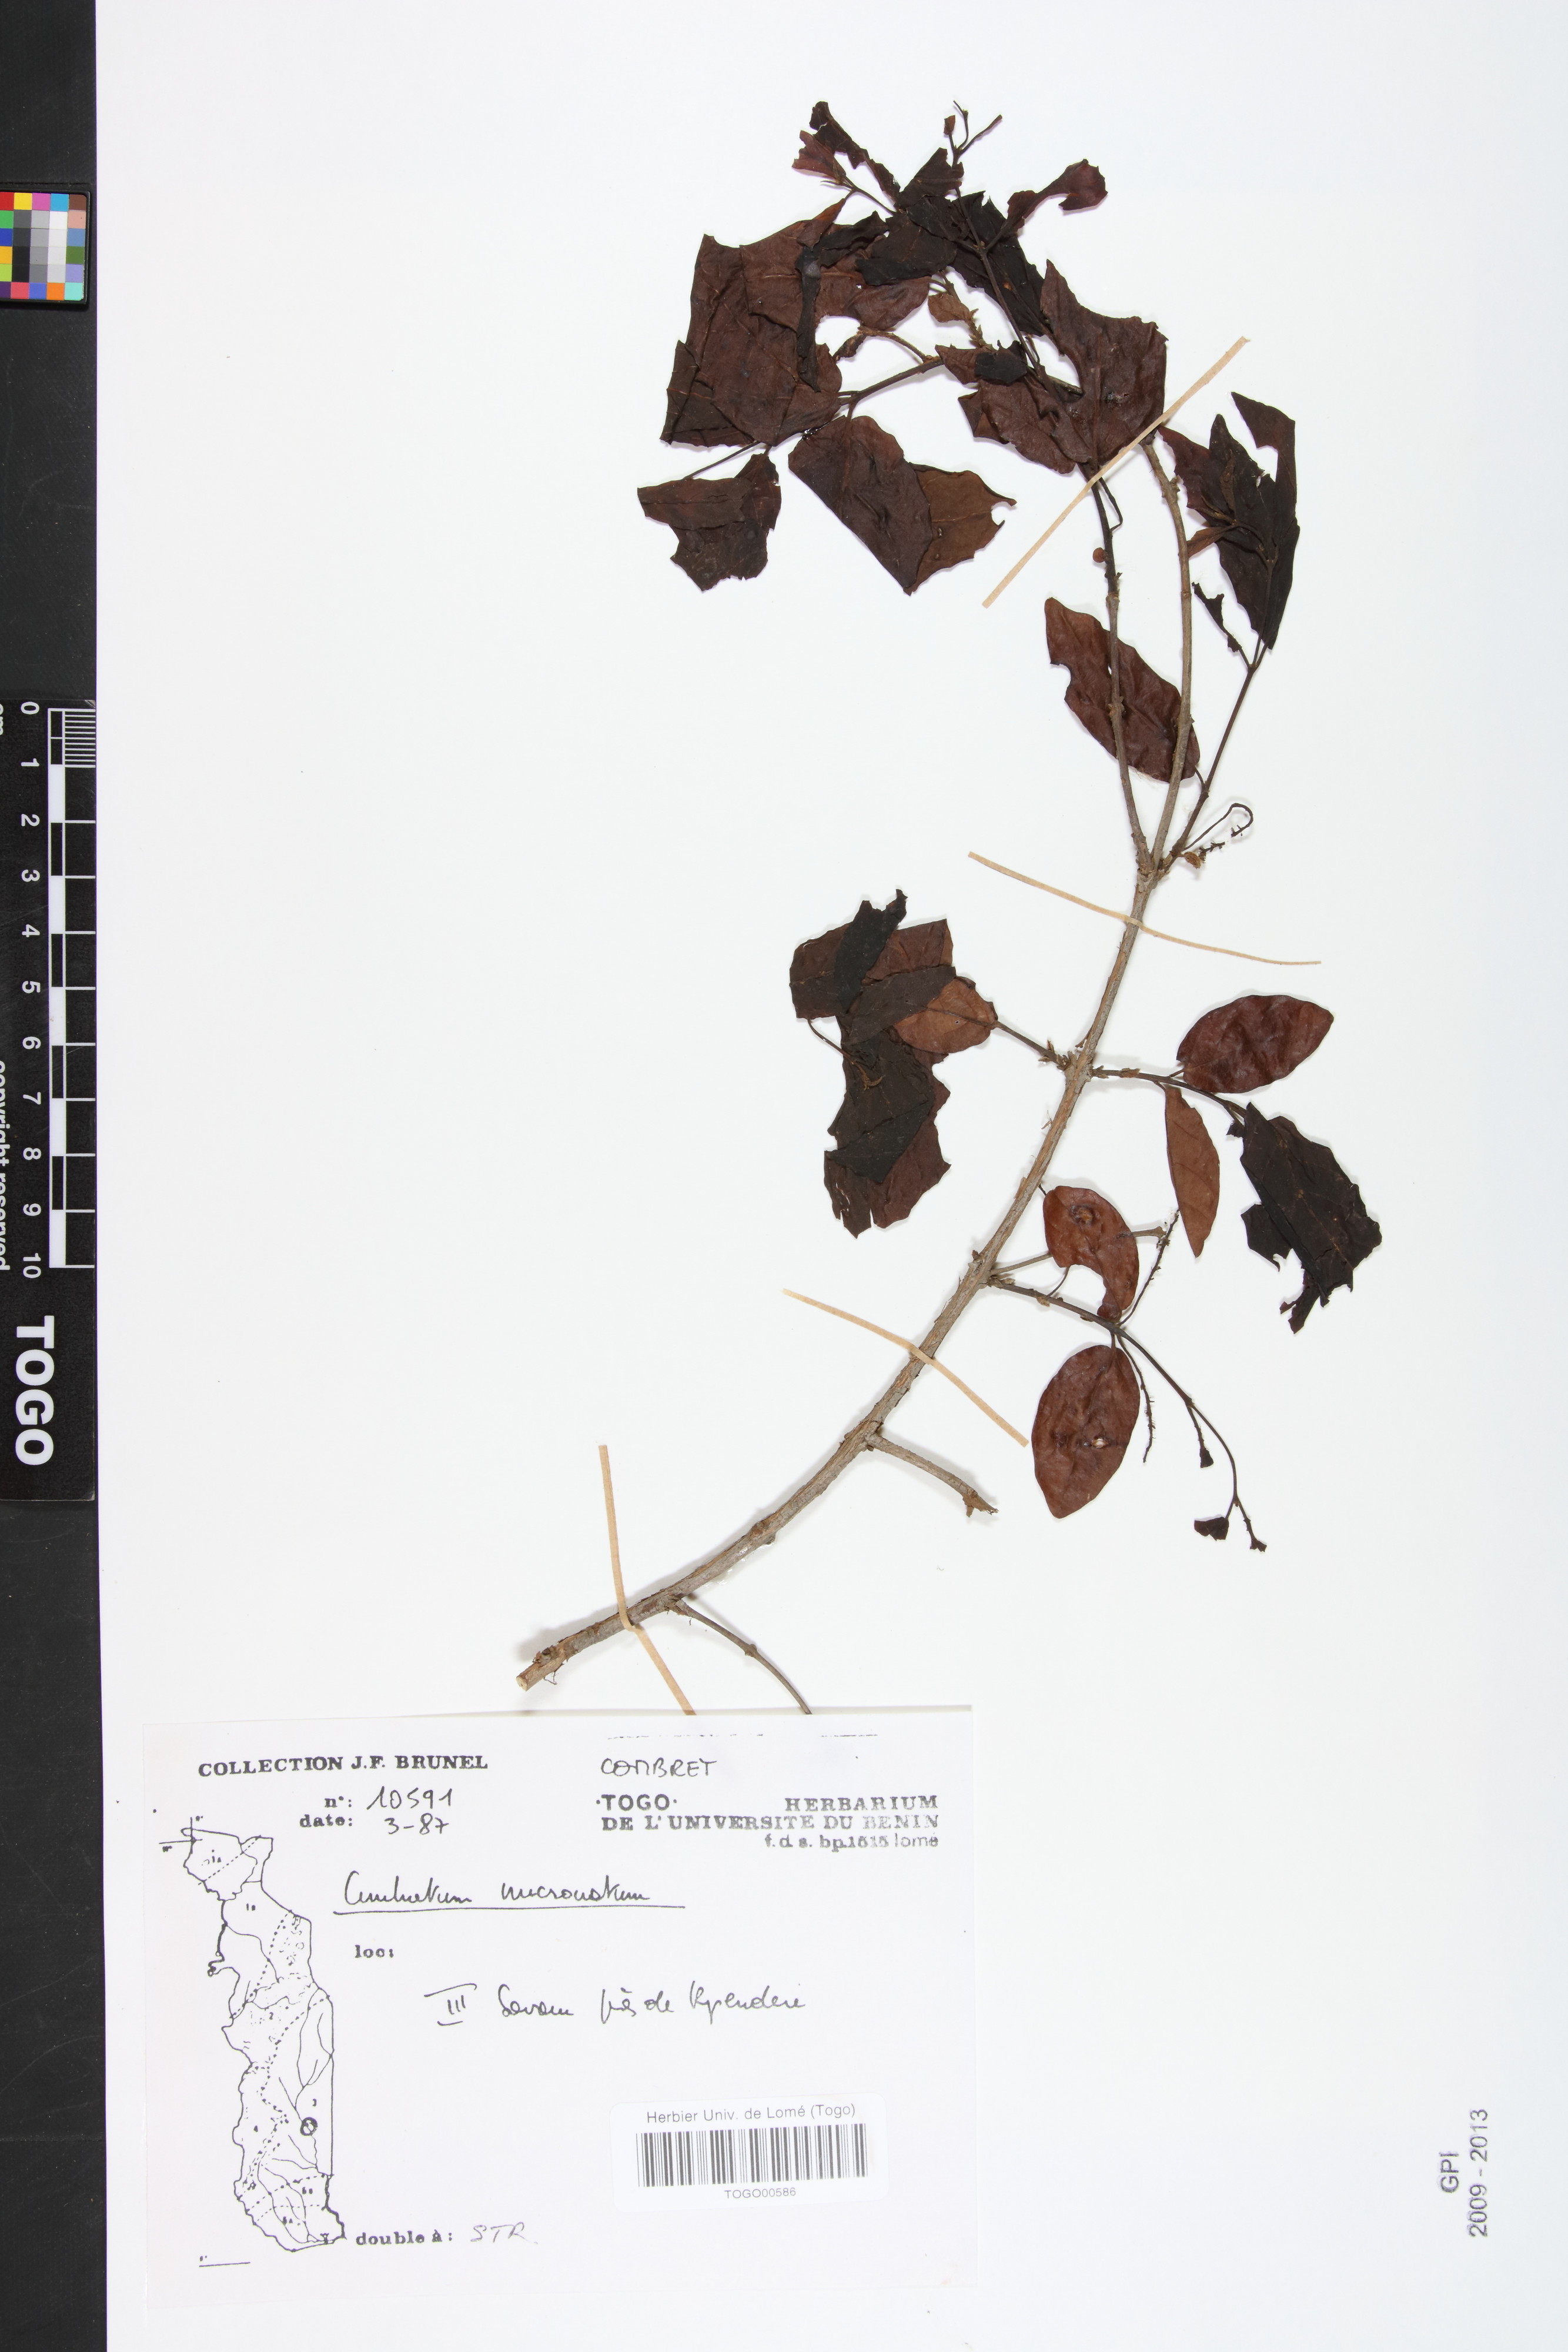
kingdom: Plantae
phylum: Tracheophyta
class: Magnoliopsida
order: Myrtales
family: Combretaceae
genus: Combretum
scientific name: Combretum mucronatum
